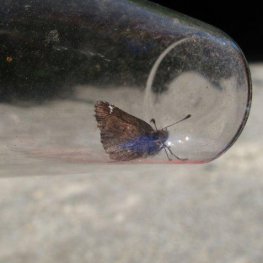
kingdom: Animalia
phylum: Arthropoda
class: Insecta
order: Lepidoptera
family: Hesperiidae
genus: Mastor
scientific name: Mastor vialis
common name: Common Roadside-Skipper
